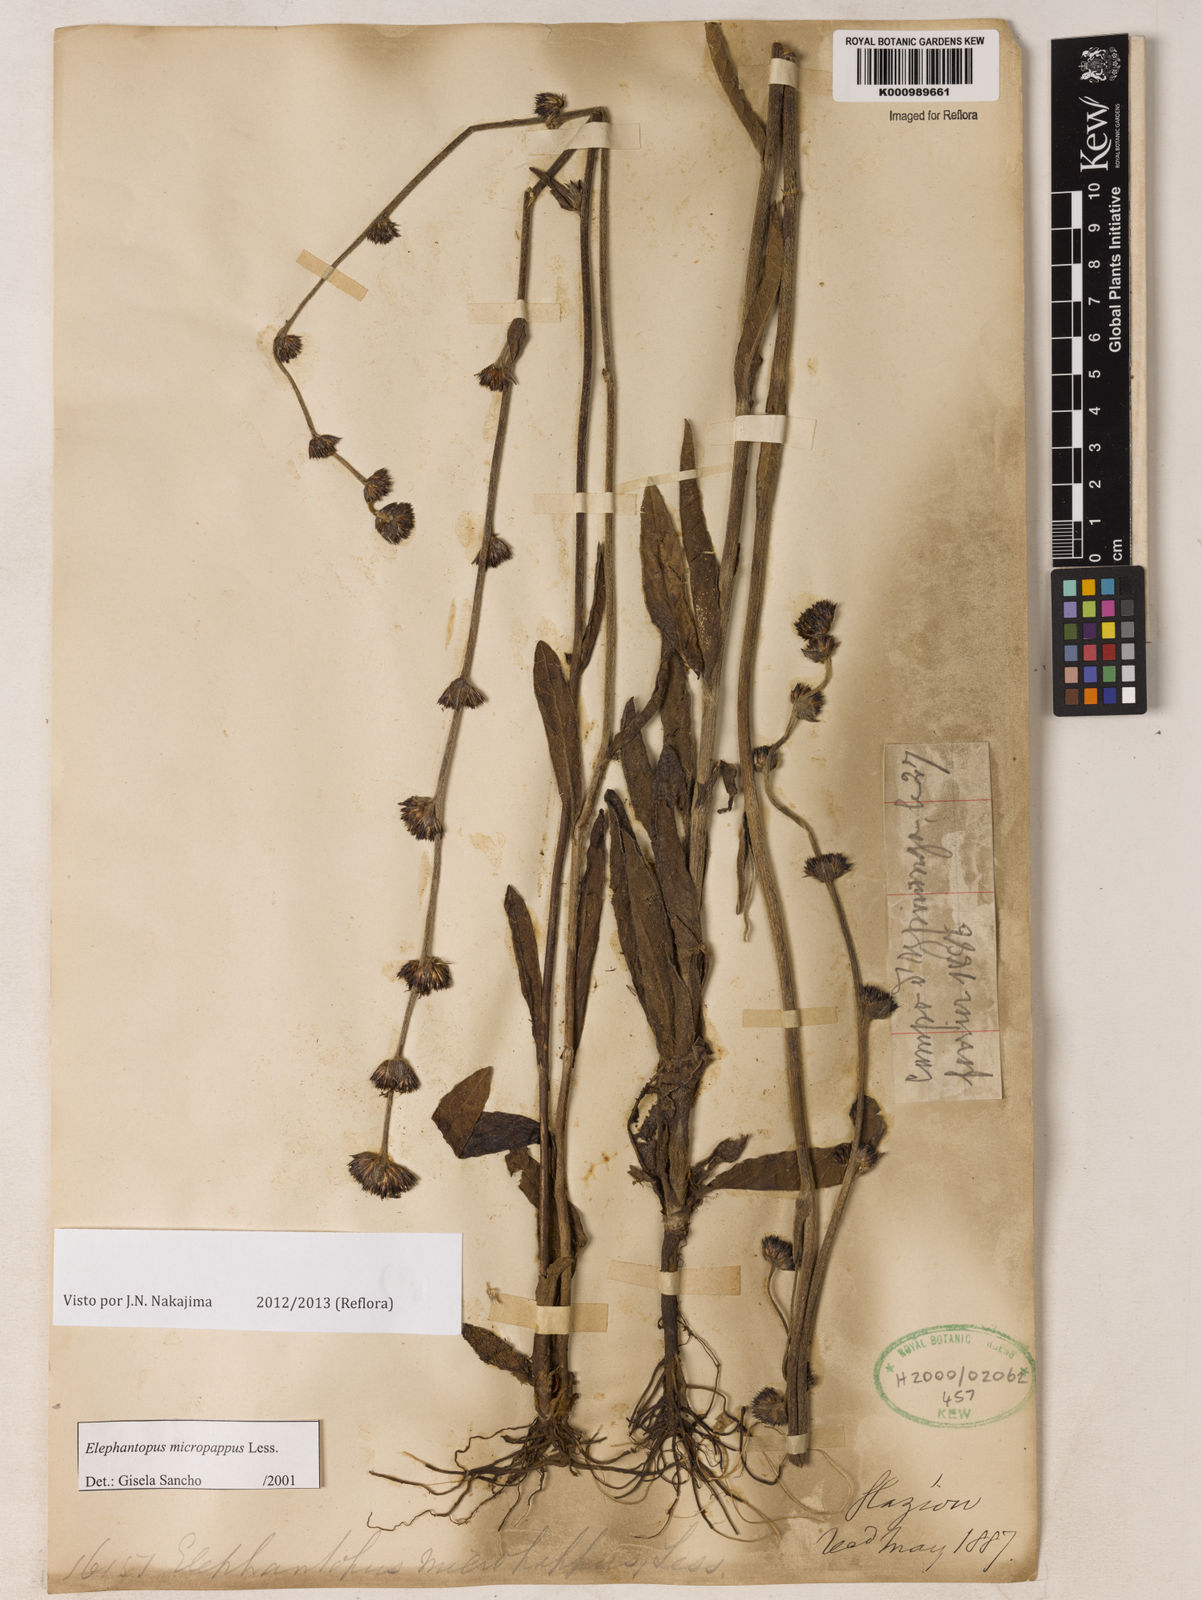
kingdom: Plantae
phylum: Tracheophyta
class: Magnoliopsida
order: Asterales
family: Asteraceae
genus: Elephantopus
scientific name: Elephantopus micropappus
